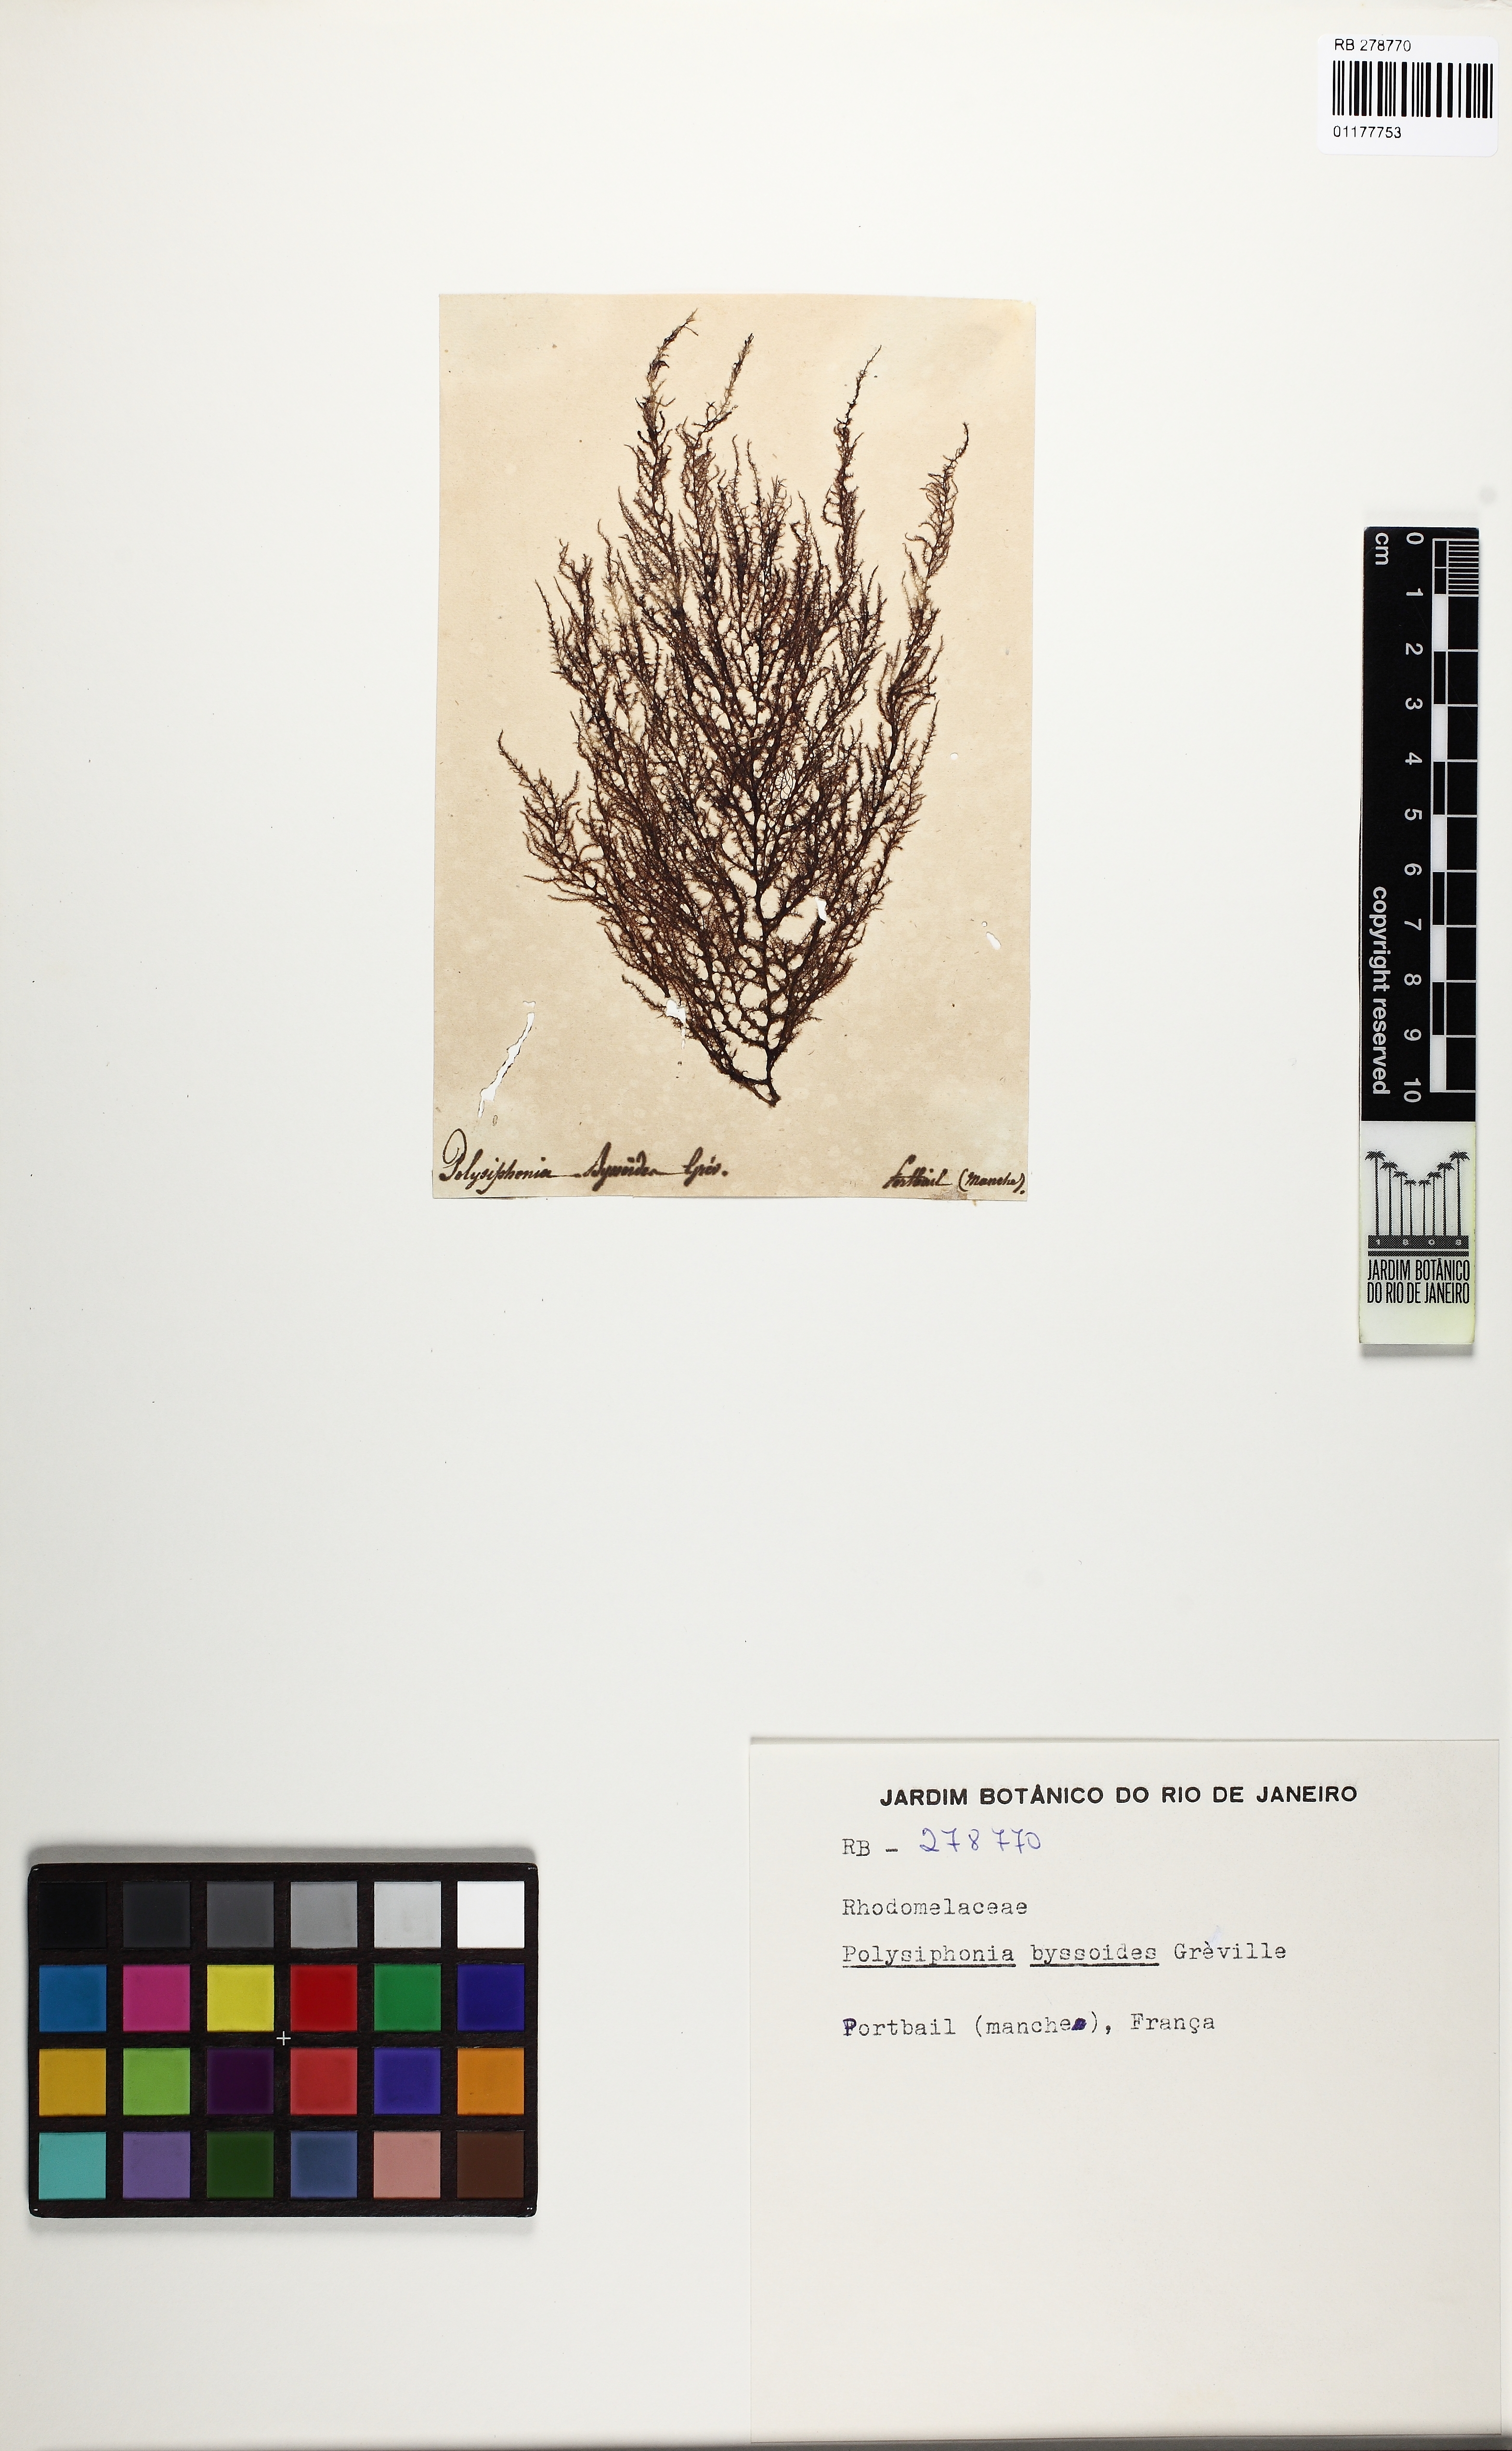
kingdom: Plantae
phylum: Rhodophyta
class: Florideophyceae
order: Ceramiales
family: Rhodomelaceae
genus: Vertebrata
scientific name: Vertebrata byssoides
